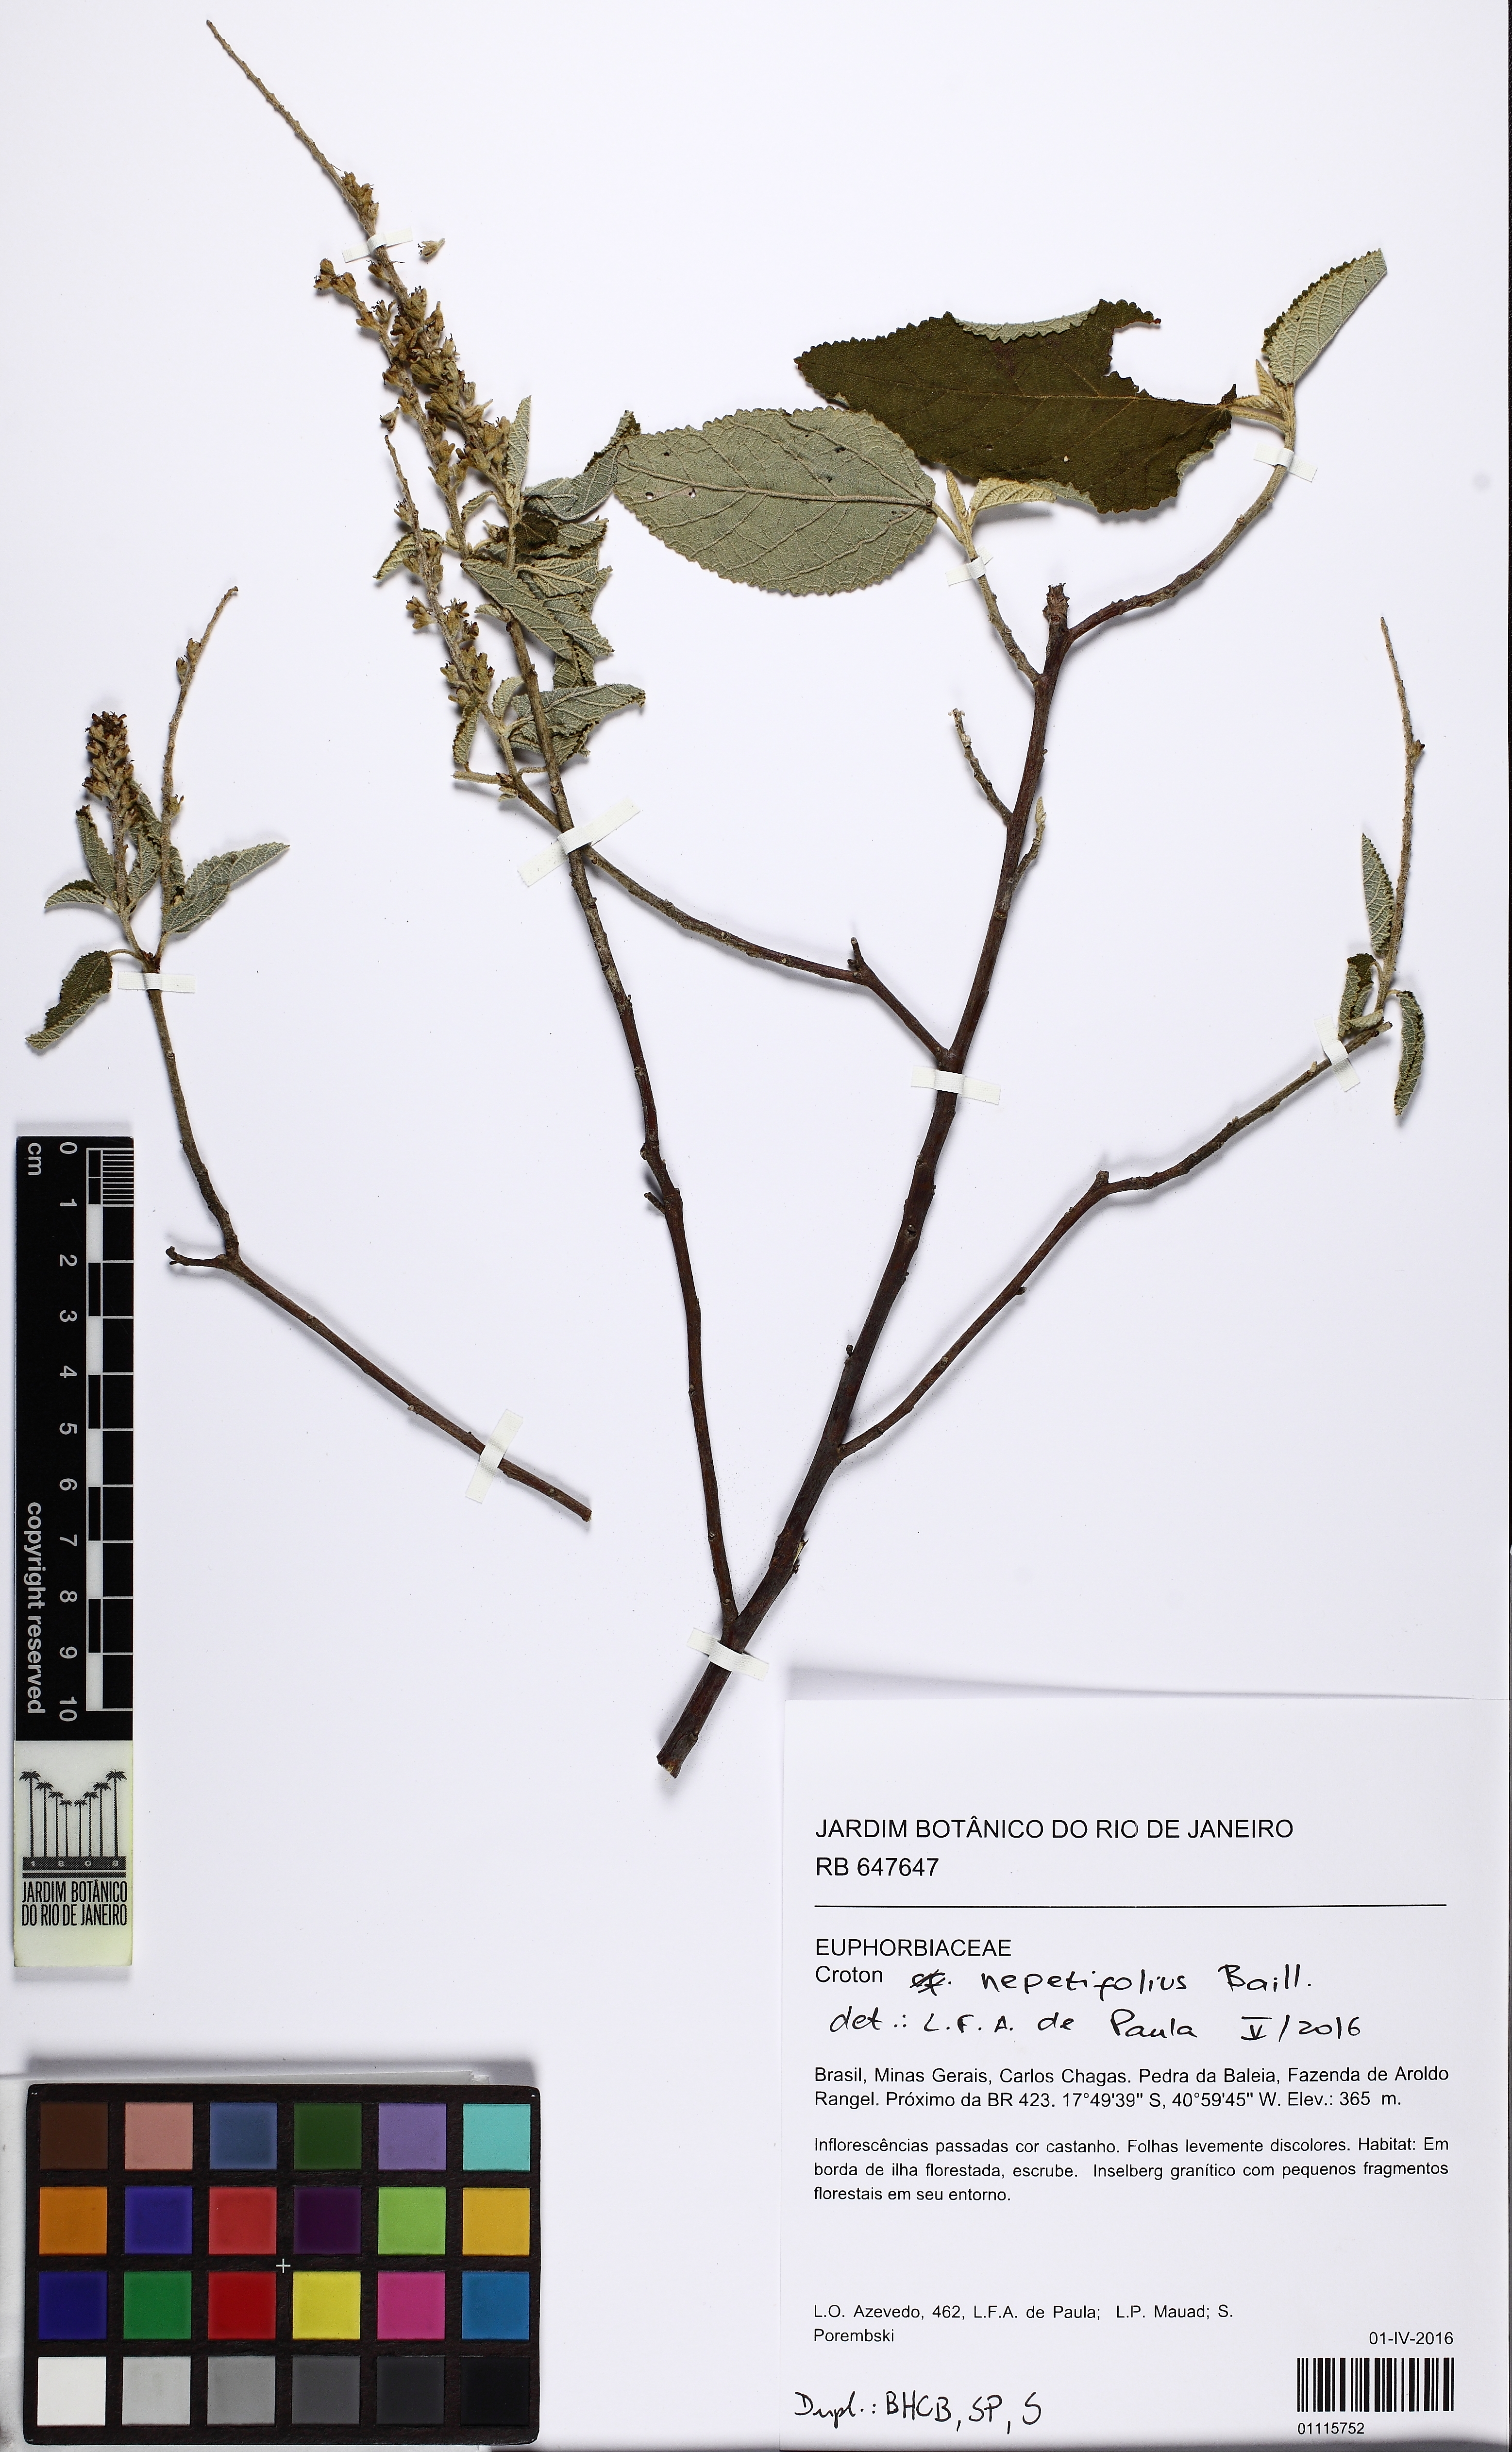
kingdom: Plantae
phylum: Tracheophyta
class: Magnoliopsida
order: Malpighiales
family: Euphorbiaceae
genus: Croton
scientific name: Croton nepetifolius
